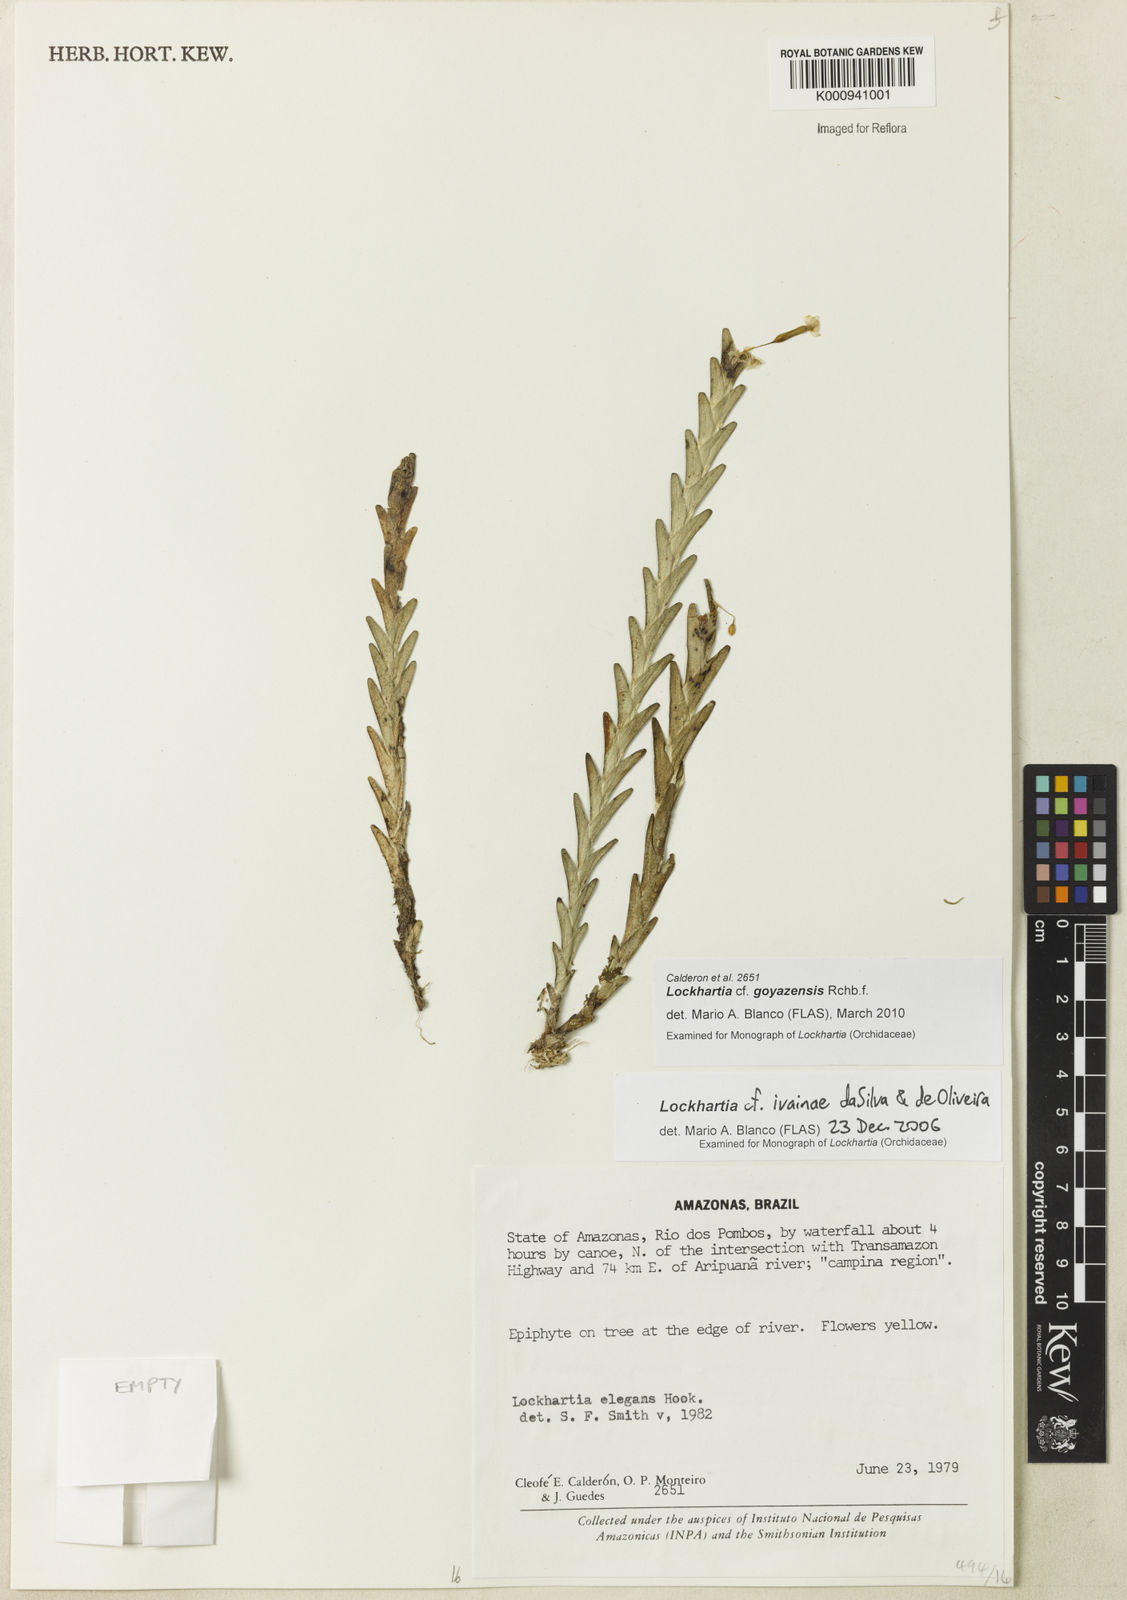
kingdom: Plantae
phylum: Tracheophyta
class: Liliopsida
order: Asparagales
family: Orchidaceae
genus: Lockhartia
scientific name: Lockhartia goyazensis
